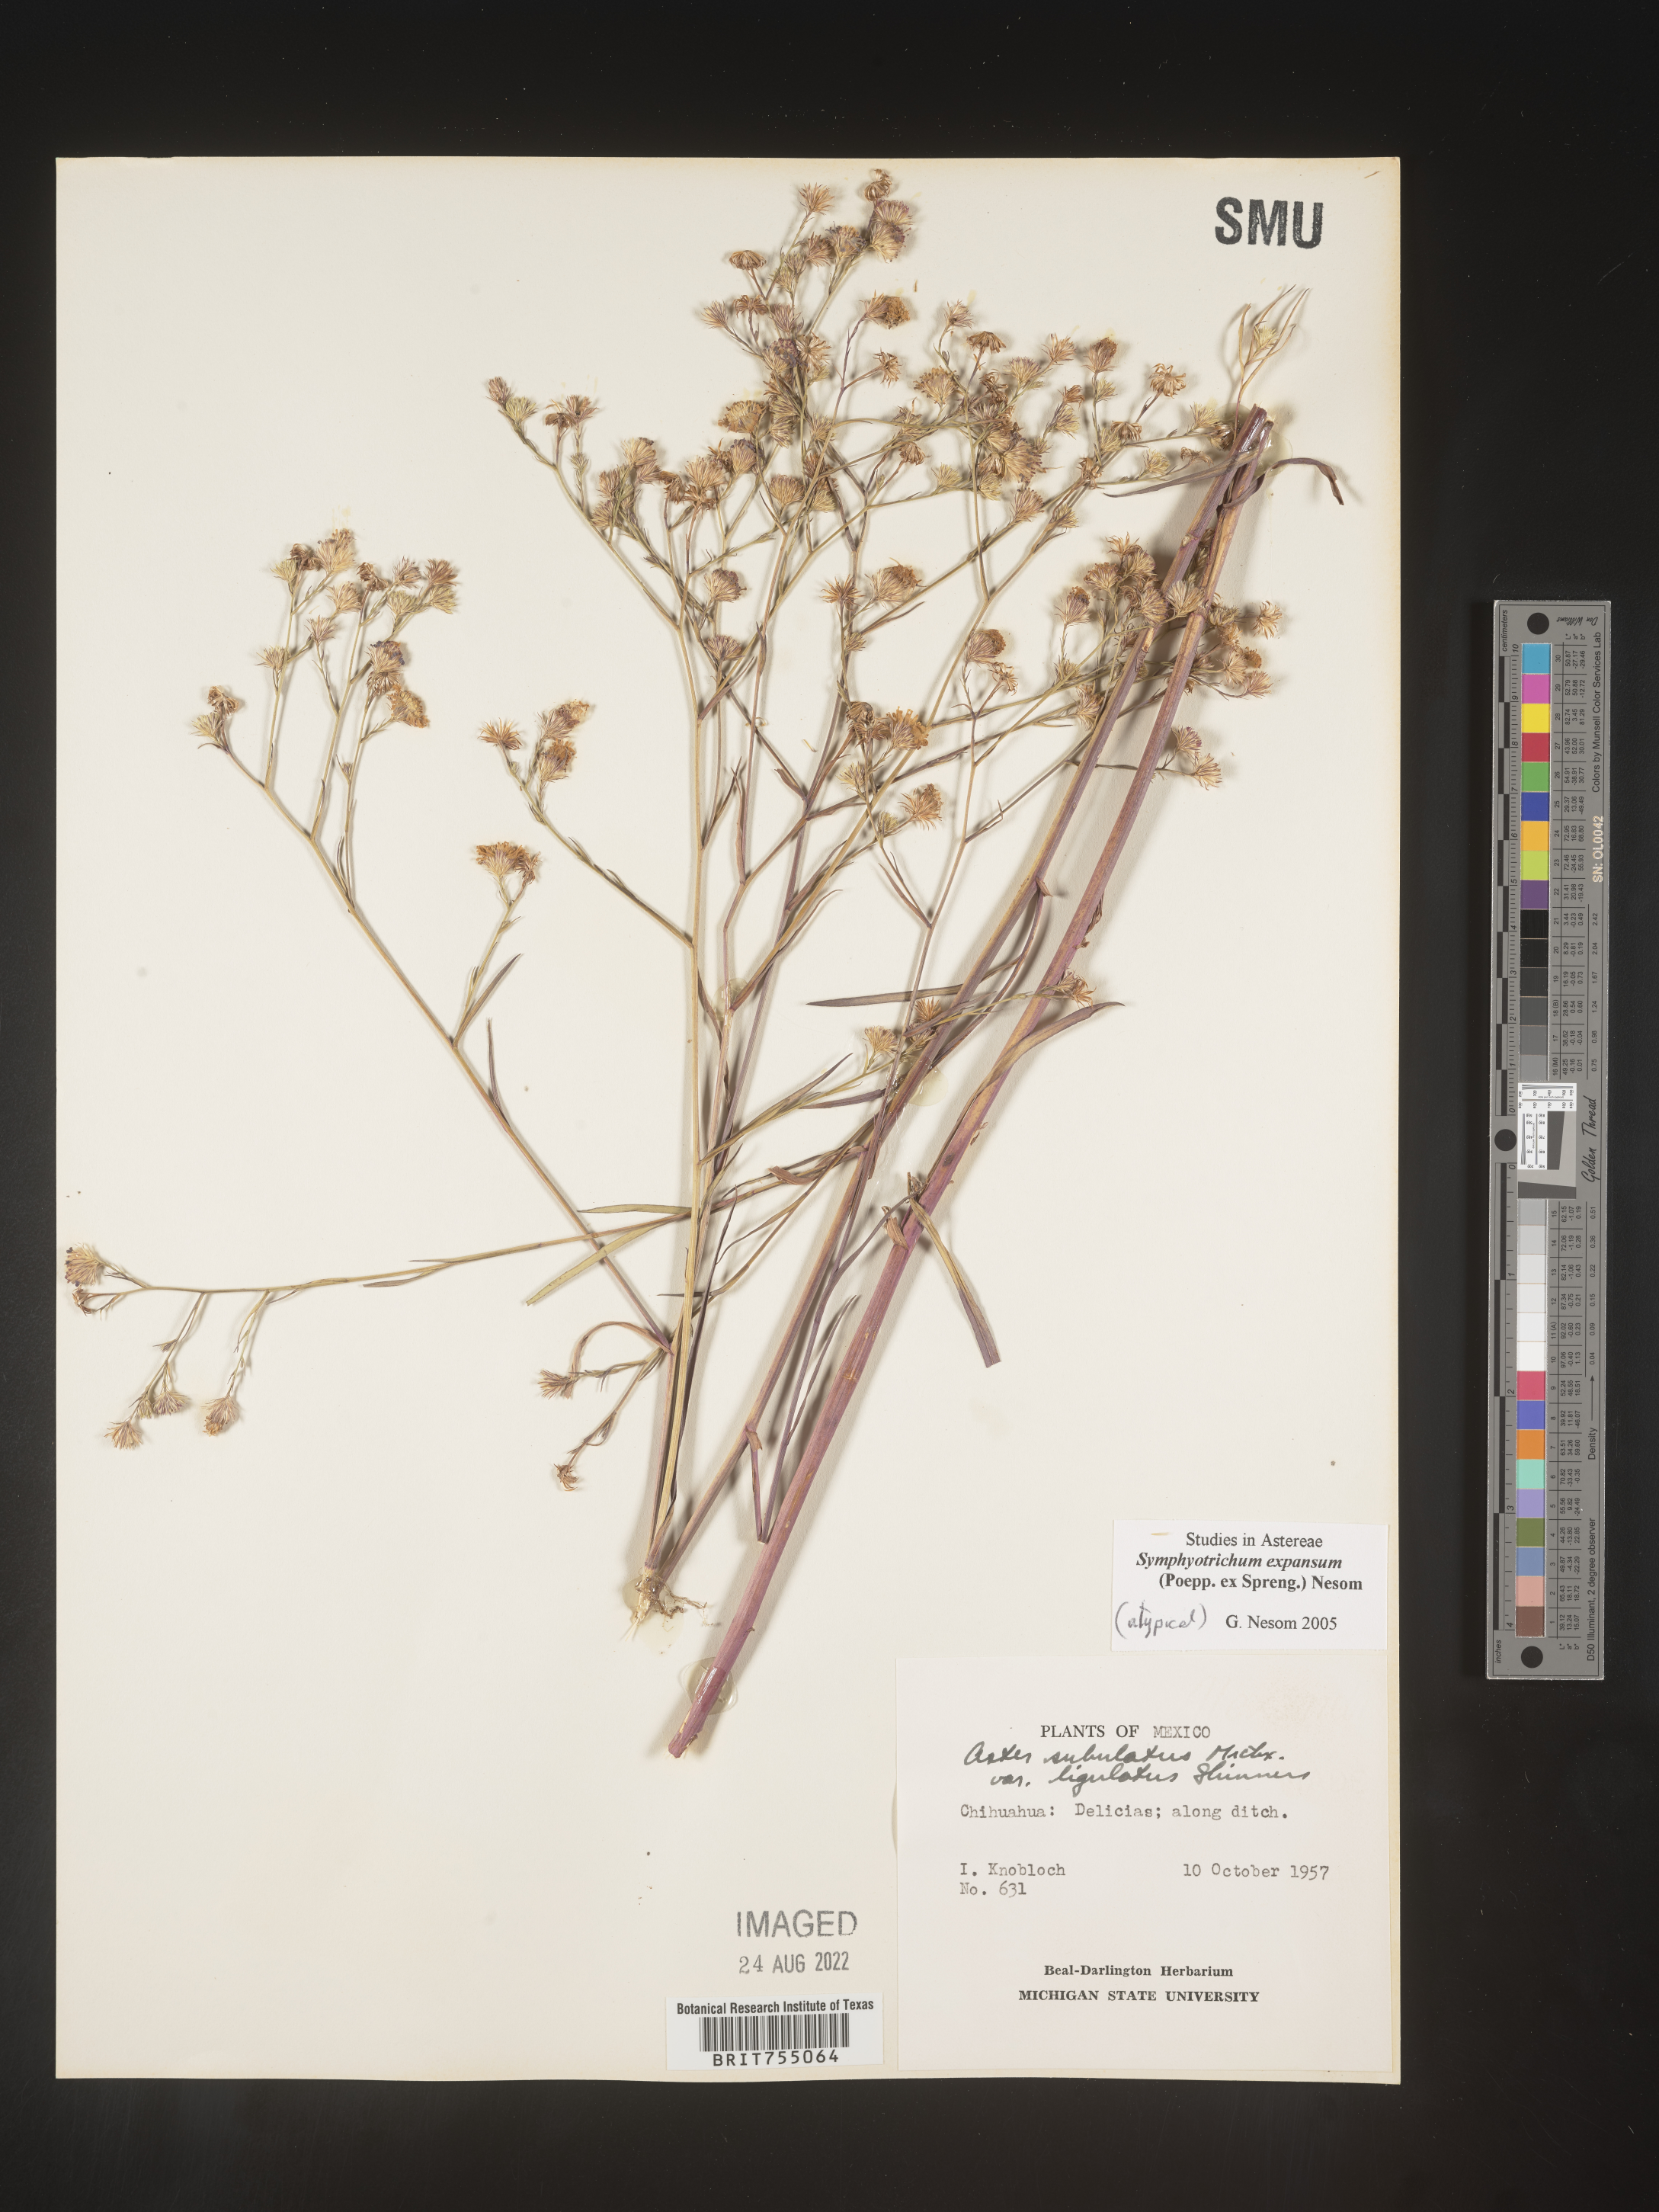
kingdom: Plantae
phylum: Tracheophyta
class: Magnoliopsida
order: Asterales
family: Asteraceae
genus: Symphyotrichum
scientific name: Symphyotrichum expansum
